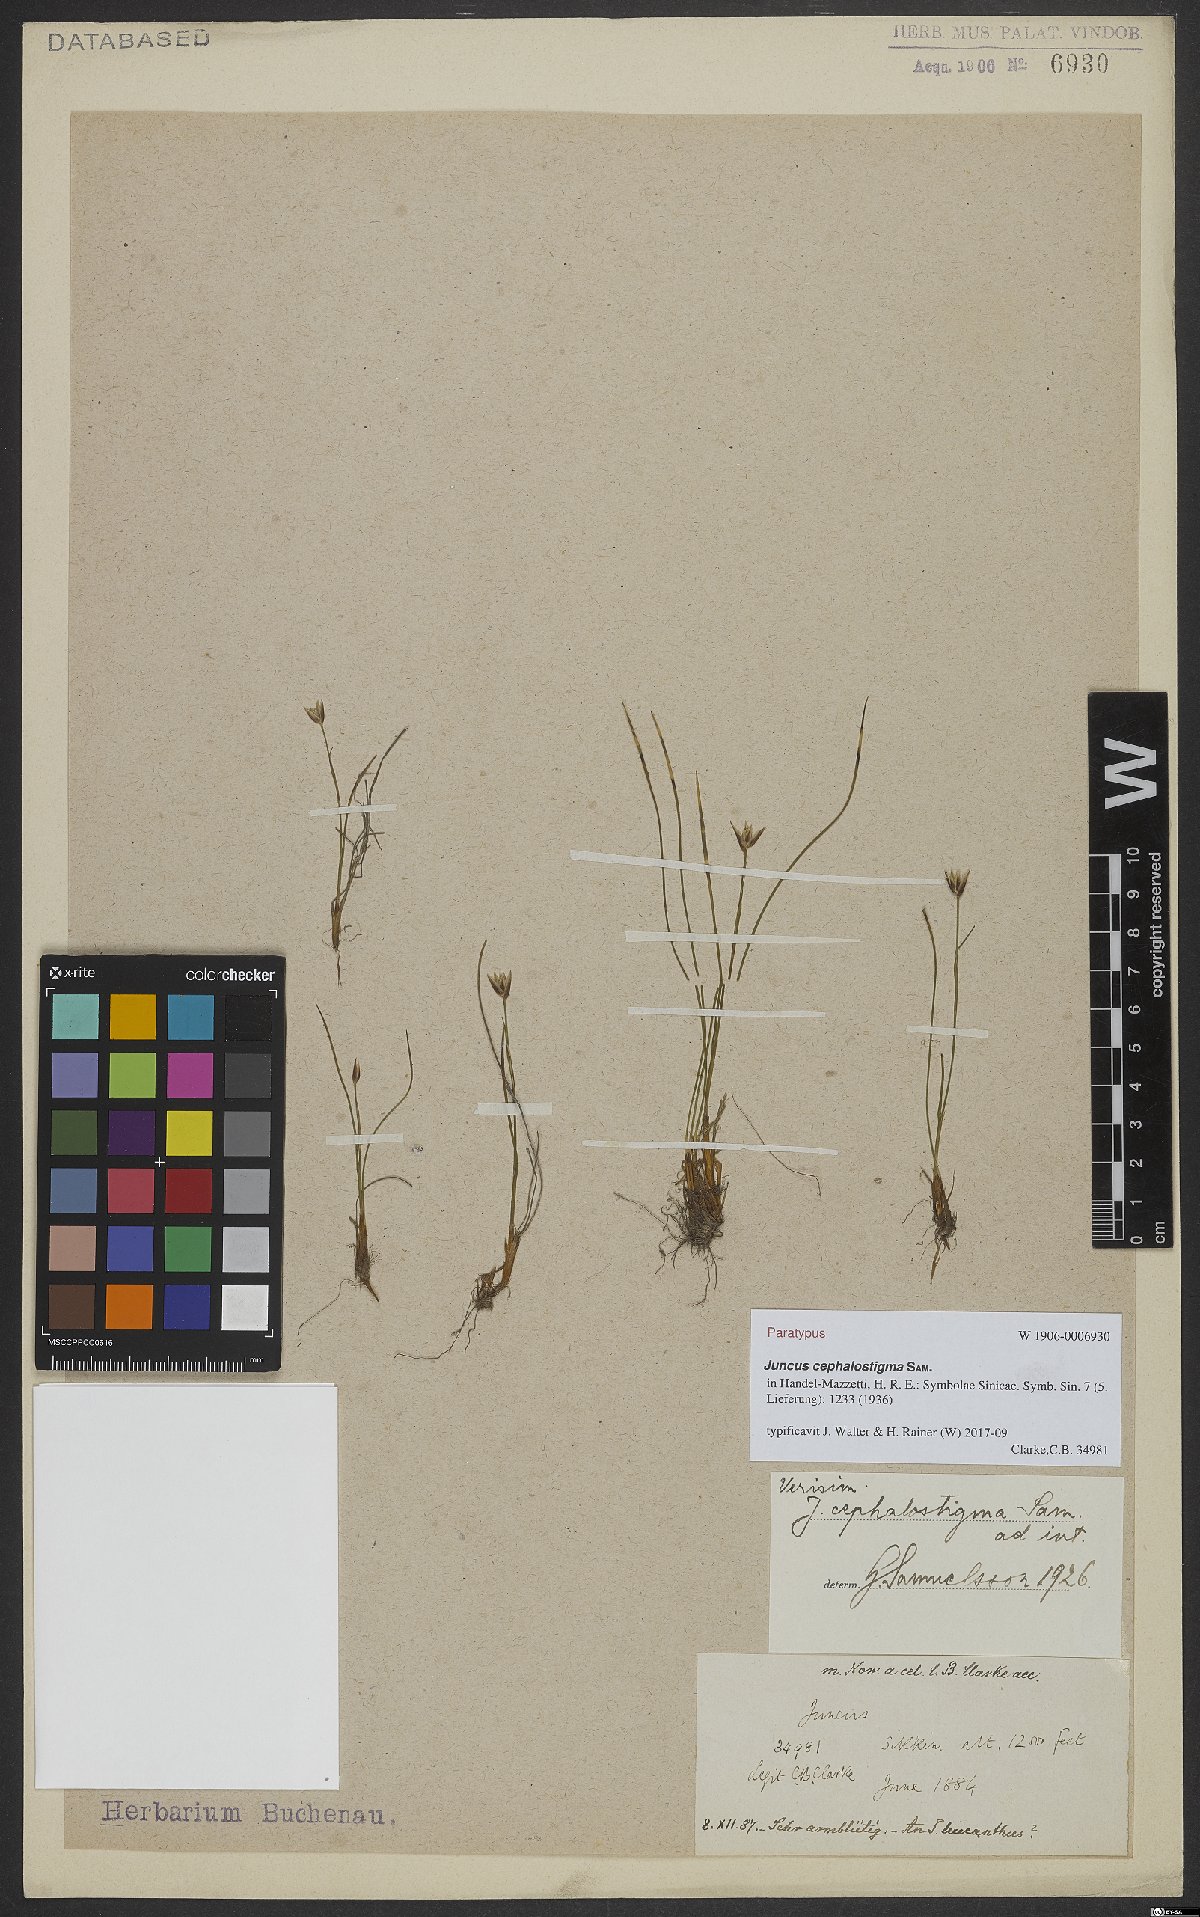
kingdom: Plantae
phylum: Tracheophyta
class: Liliopsida
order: Poales
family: Juncaceae
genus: Juncus
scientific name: Juncus cephalostigma
